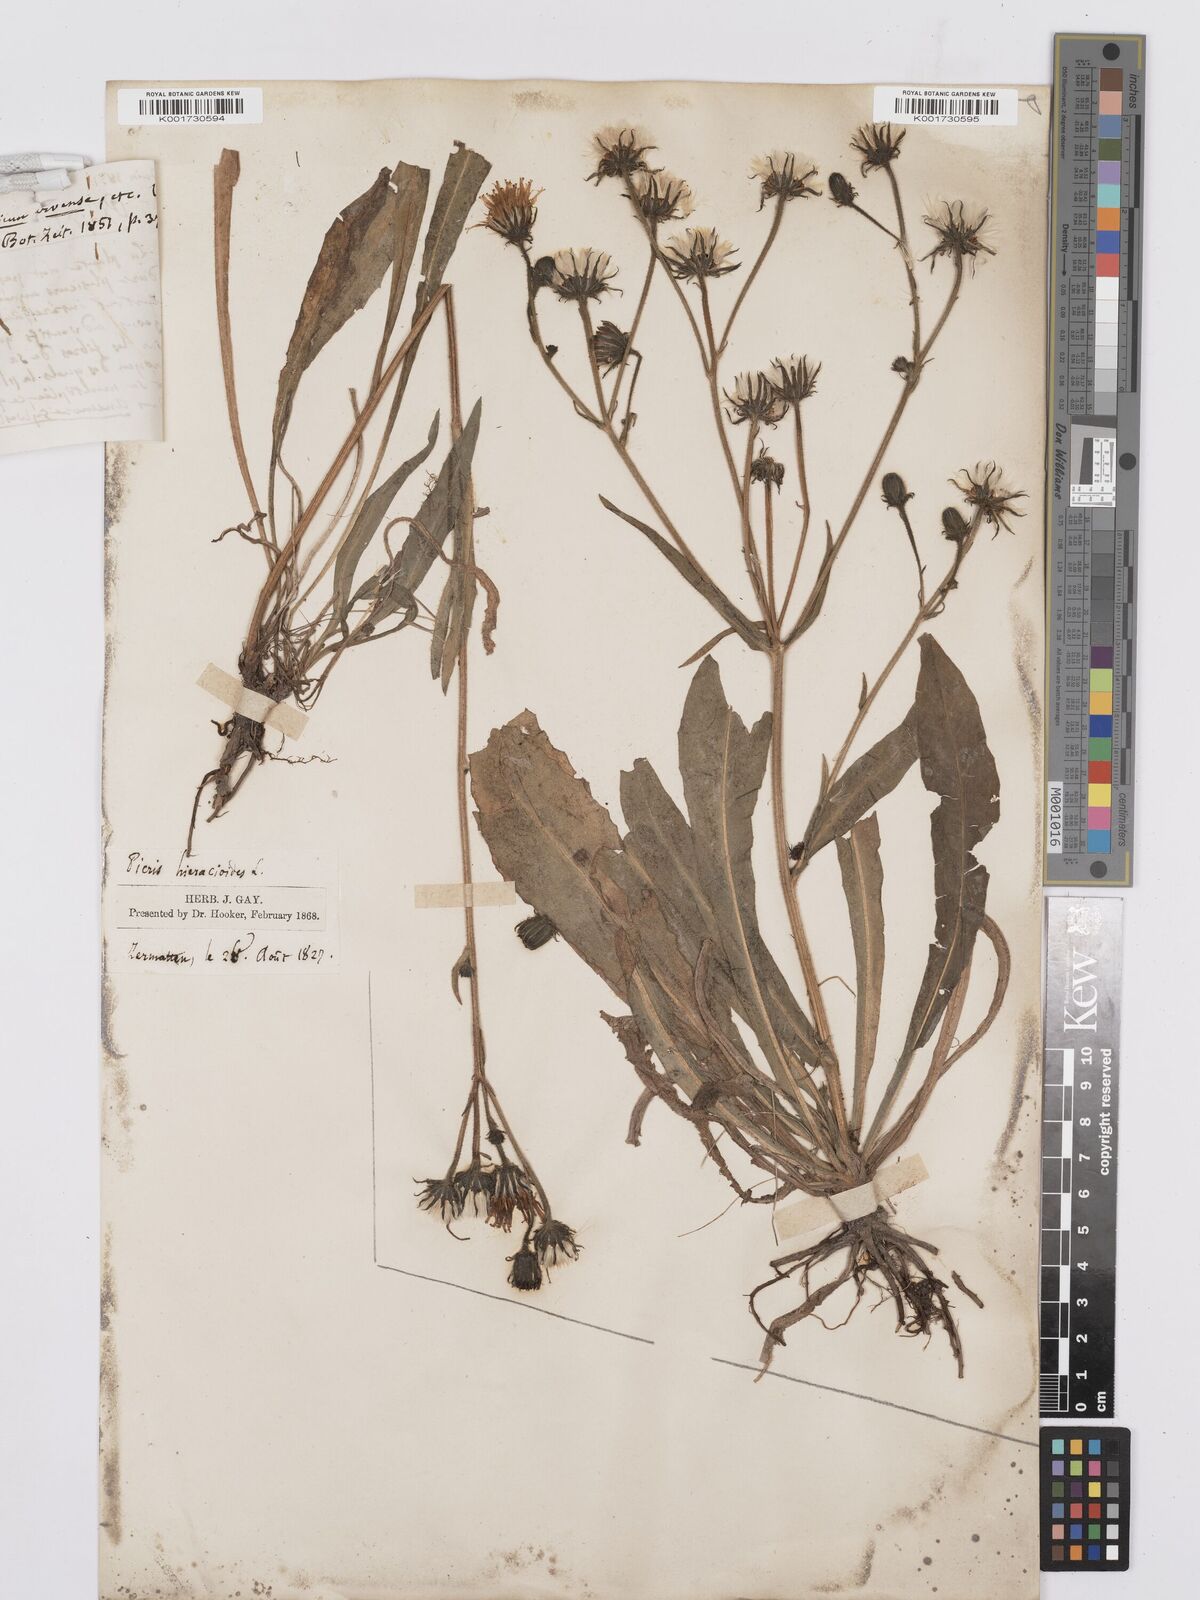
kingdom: Plantae
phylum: Tracheophyta
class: Magnoliopsida
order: Asterales
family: Asteraceae
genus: Picris
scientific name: Picris hieracioides
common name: Hawkweed oxtongue
